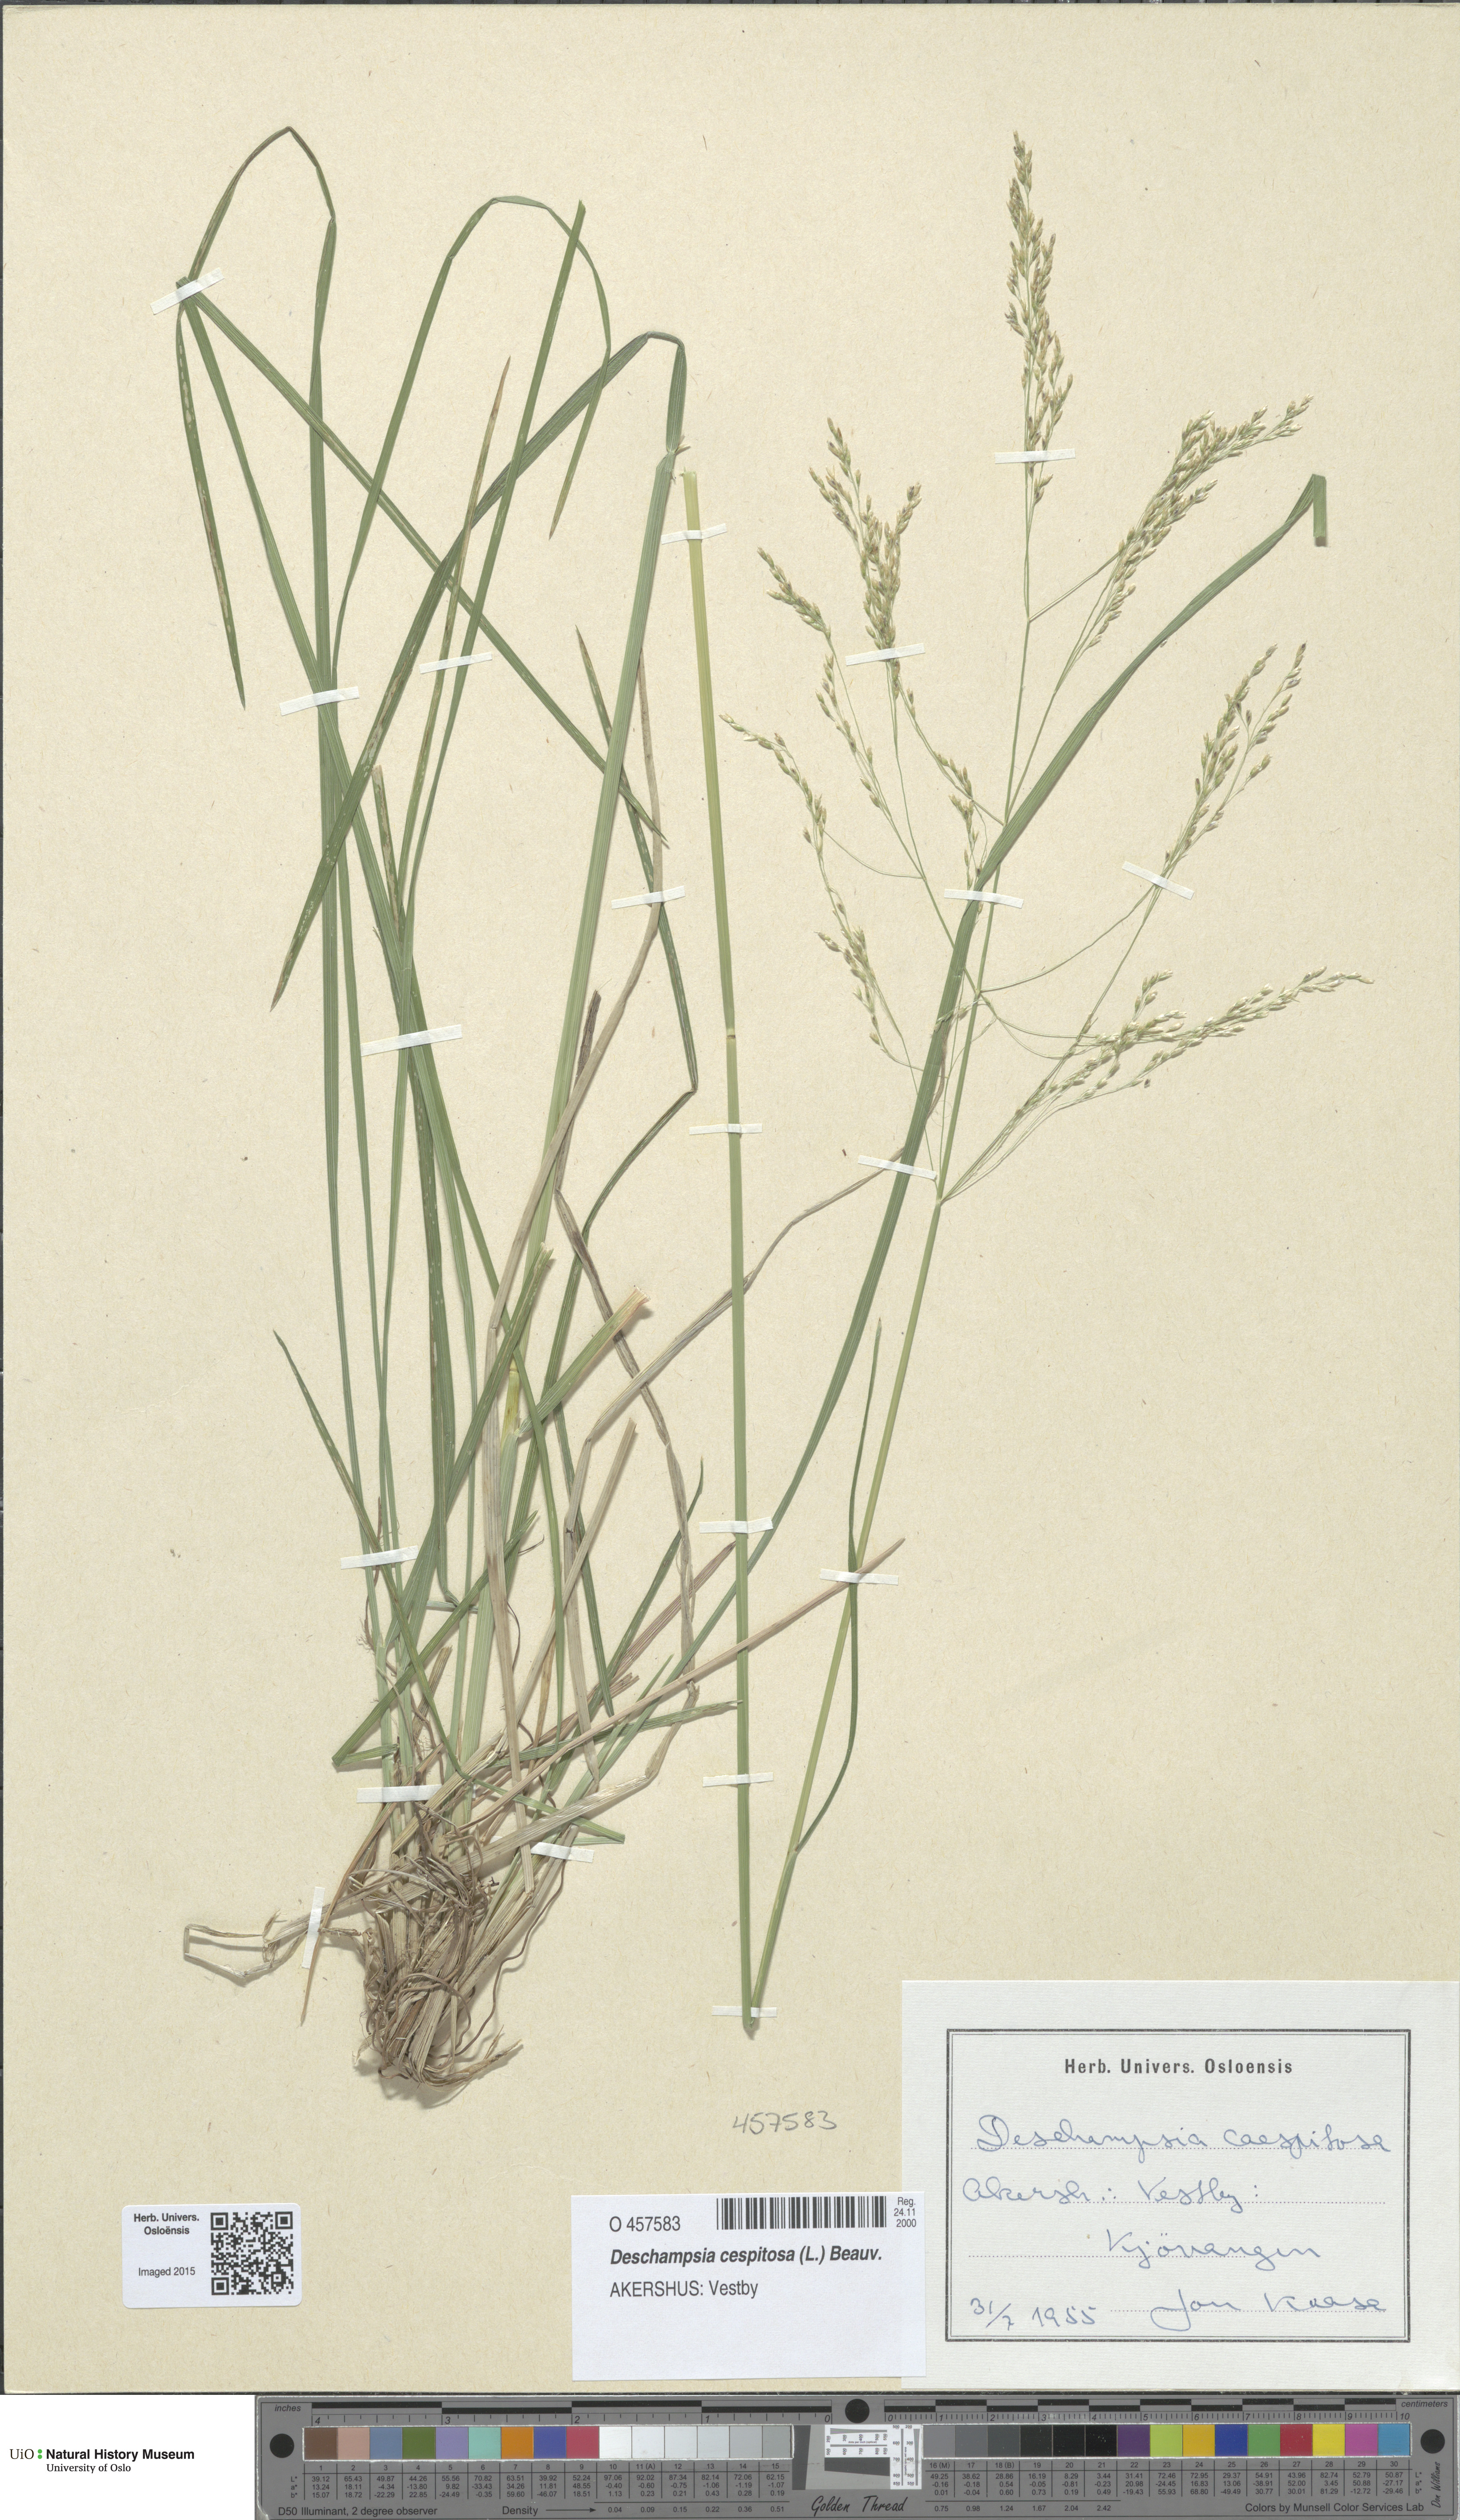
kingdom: Plantae
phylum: Tracheophyta
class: Liliopsida
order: Poales
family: Poaceae
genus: Deschampsia
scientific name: Deschampsia cespitosa
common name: Tufted hair-grass
